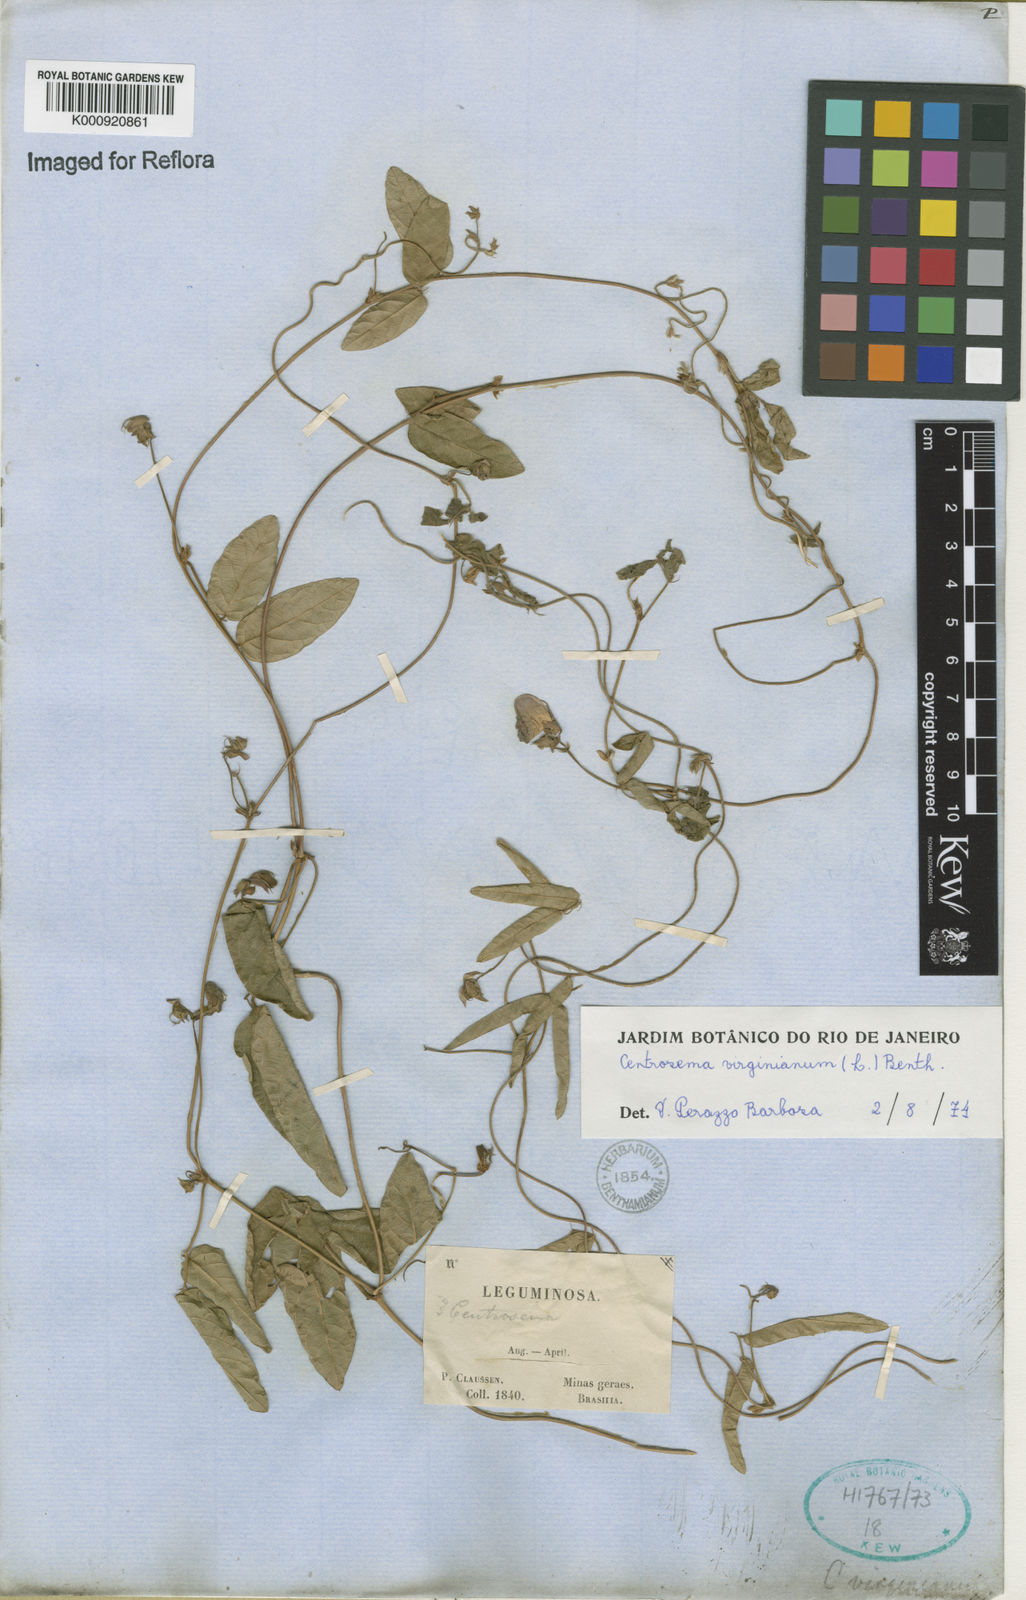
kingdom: Plantae
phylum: Tracheophyta
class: Magnoliopsida
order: Fabales
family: Fabaceae
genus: Centrosema
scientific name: Centrosema virginianum
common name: Butterfly-pea
